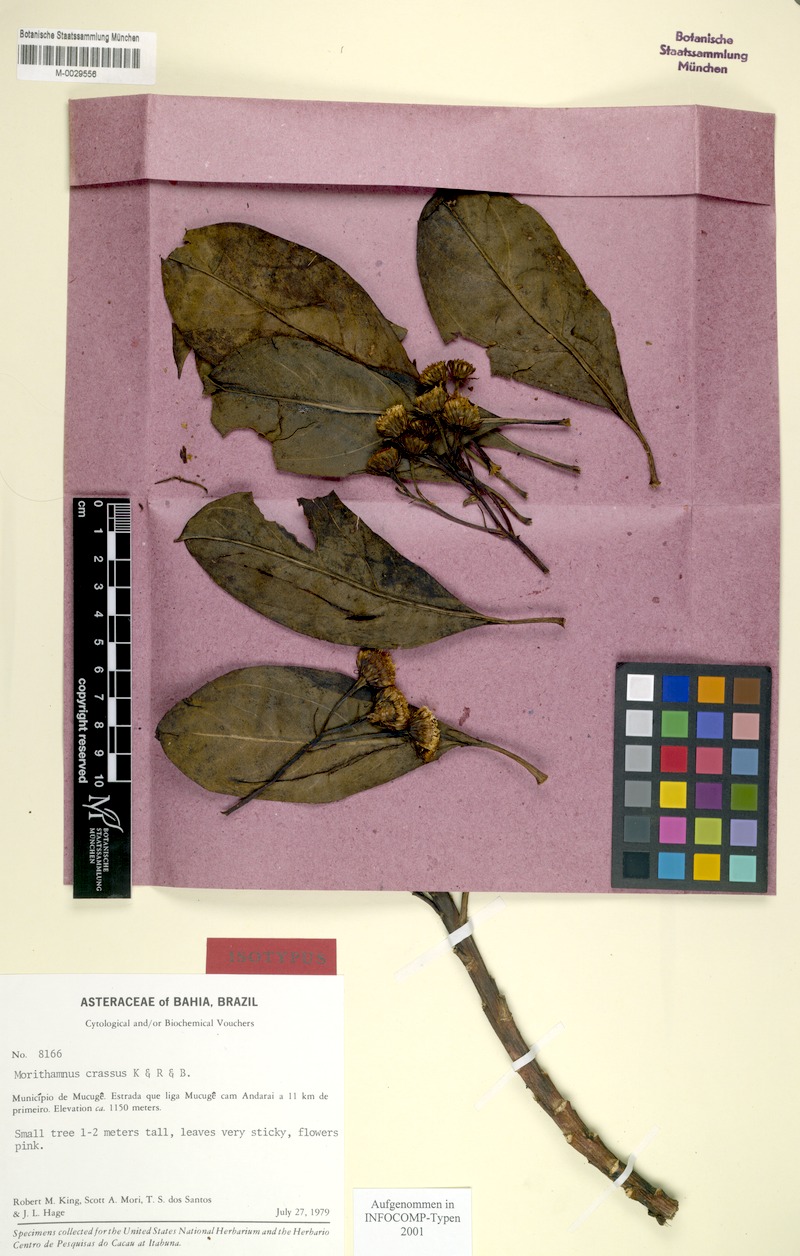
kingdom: Plantae
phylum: Tracheophyta
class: Magnoliopsida
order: Asterales
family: Asteraceae
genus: Morithamnus
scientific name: Morithamnus crassus
